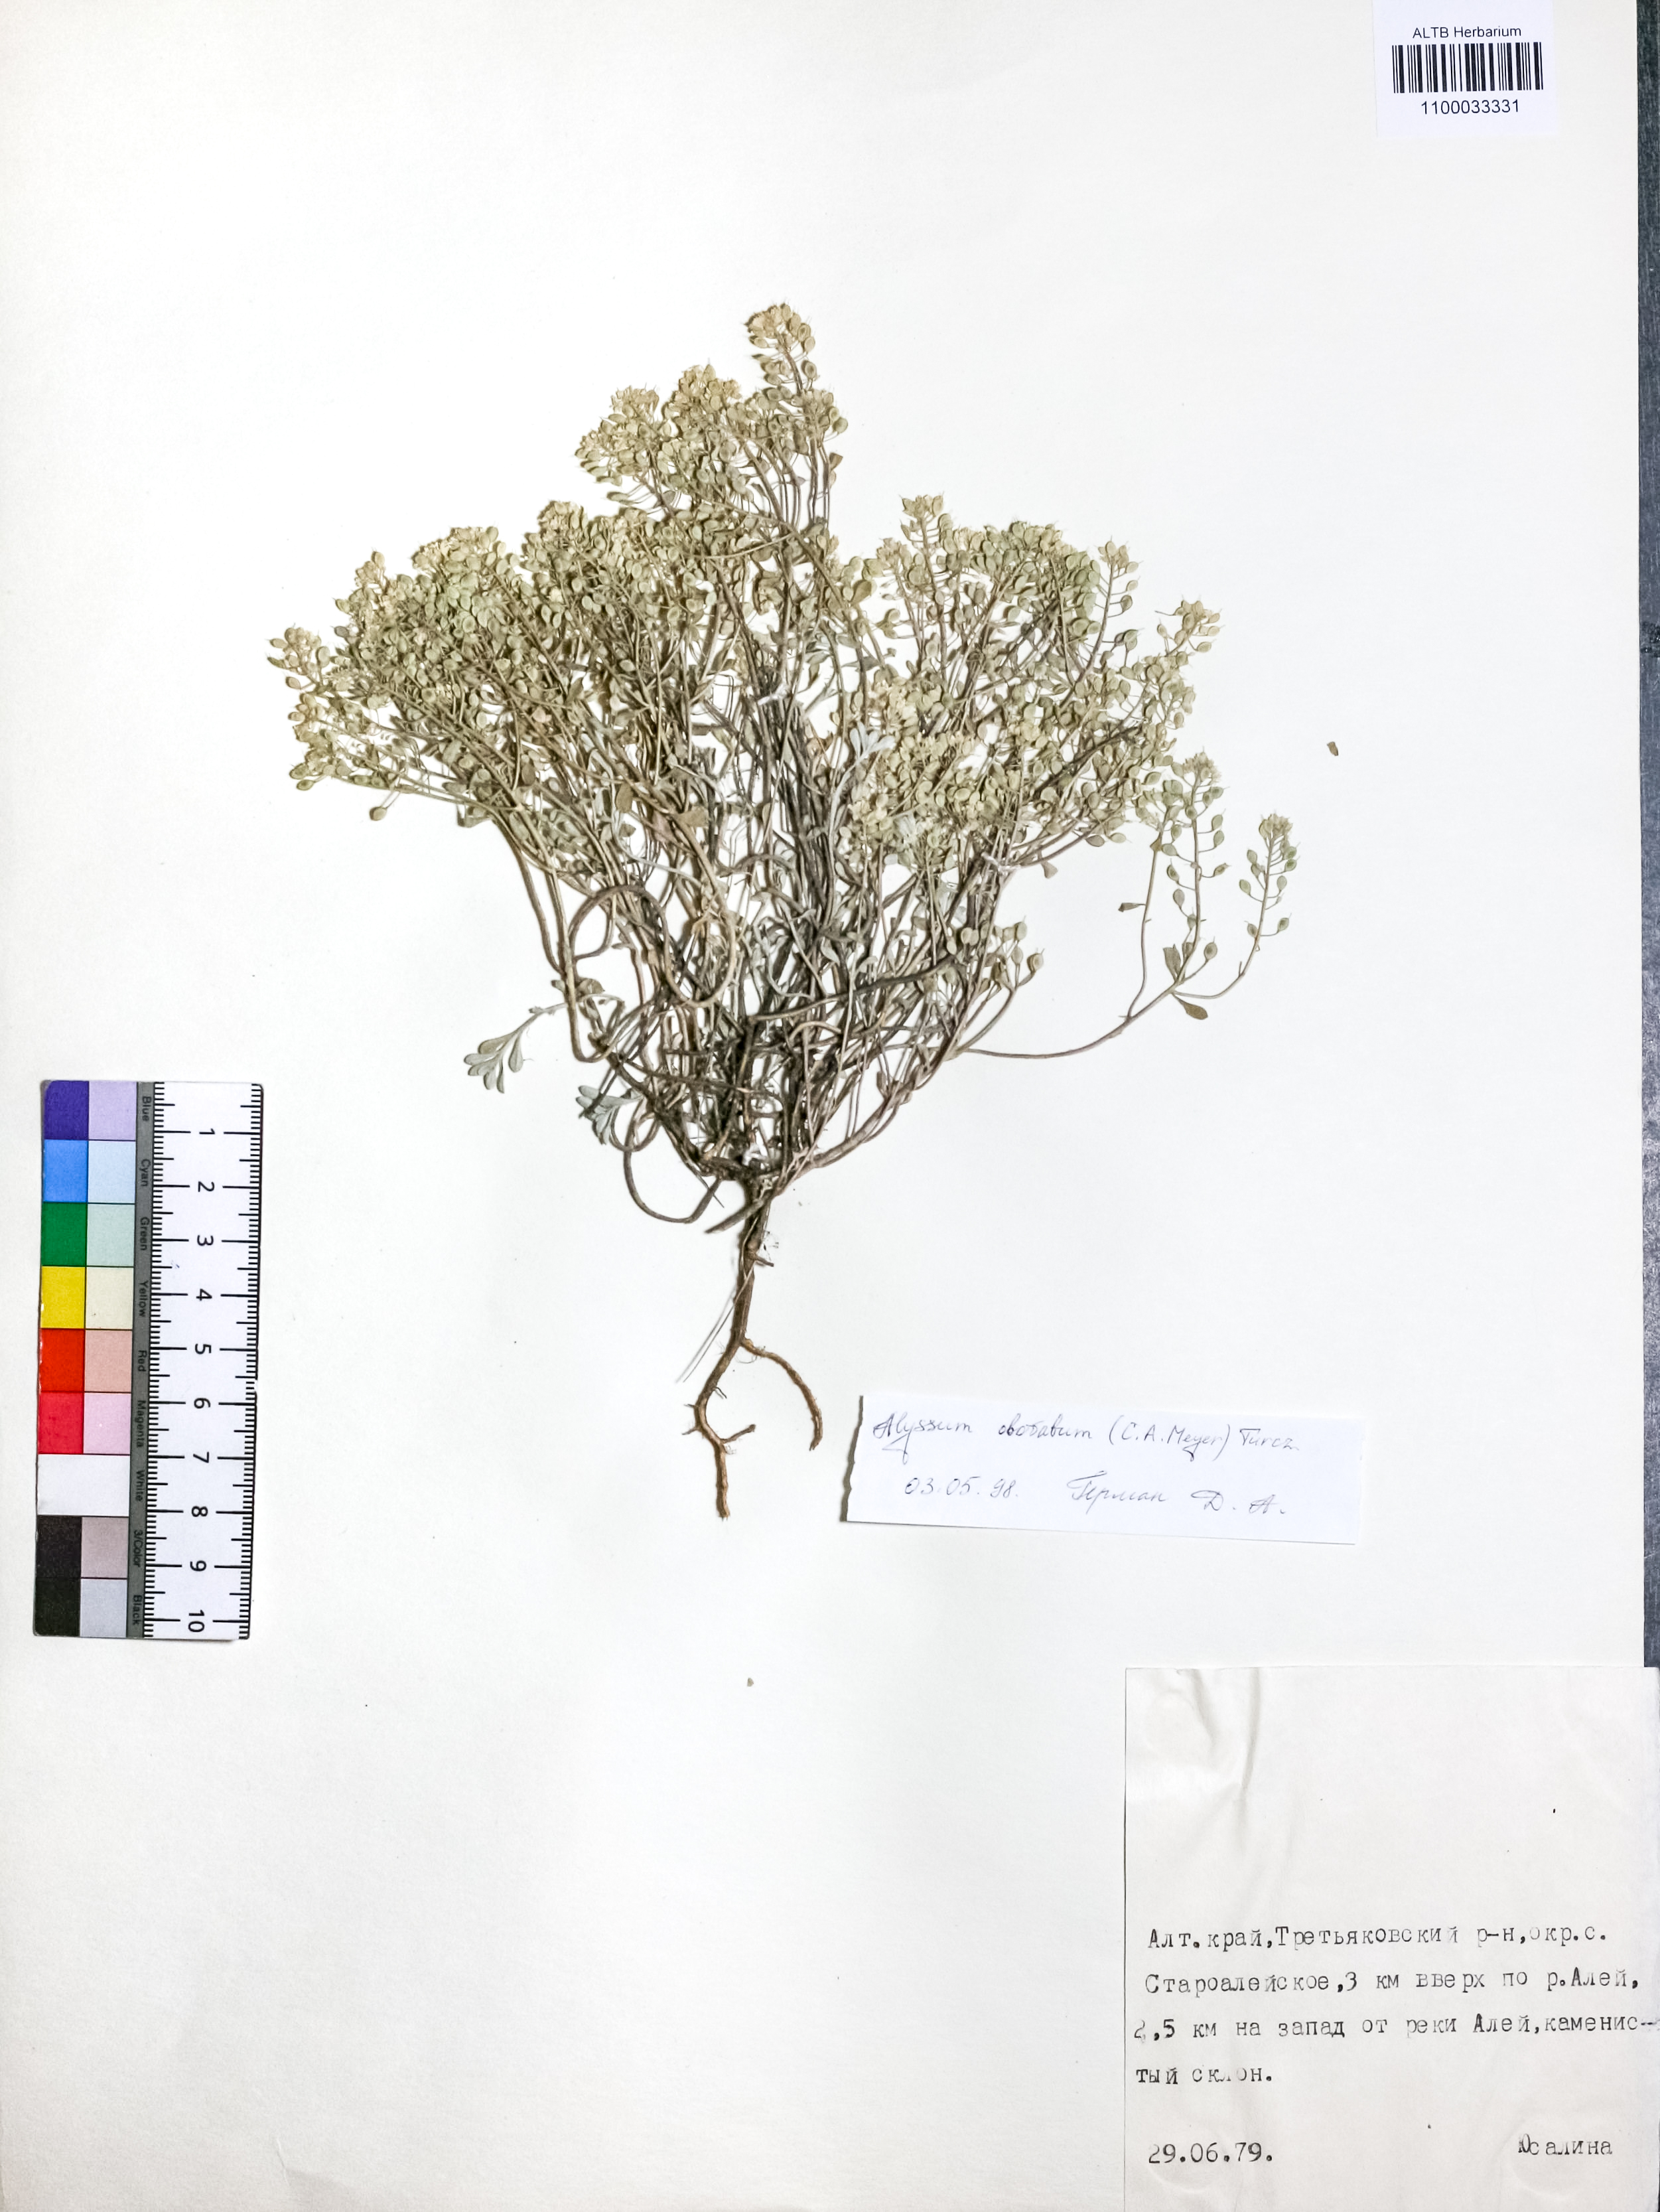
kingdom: Plantae
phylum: Tracheophyta
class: Magnoliopsida
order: Brassicales
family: Brassicaceae
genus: Odontarrhena
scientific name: Odontarrhena obovata
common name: American alyssum
